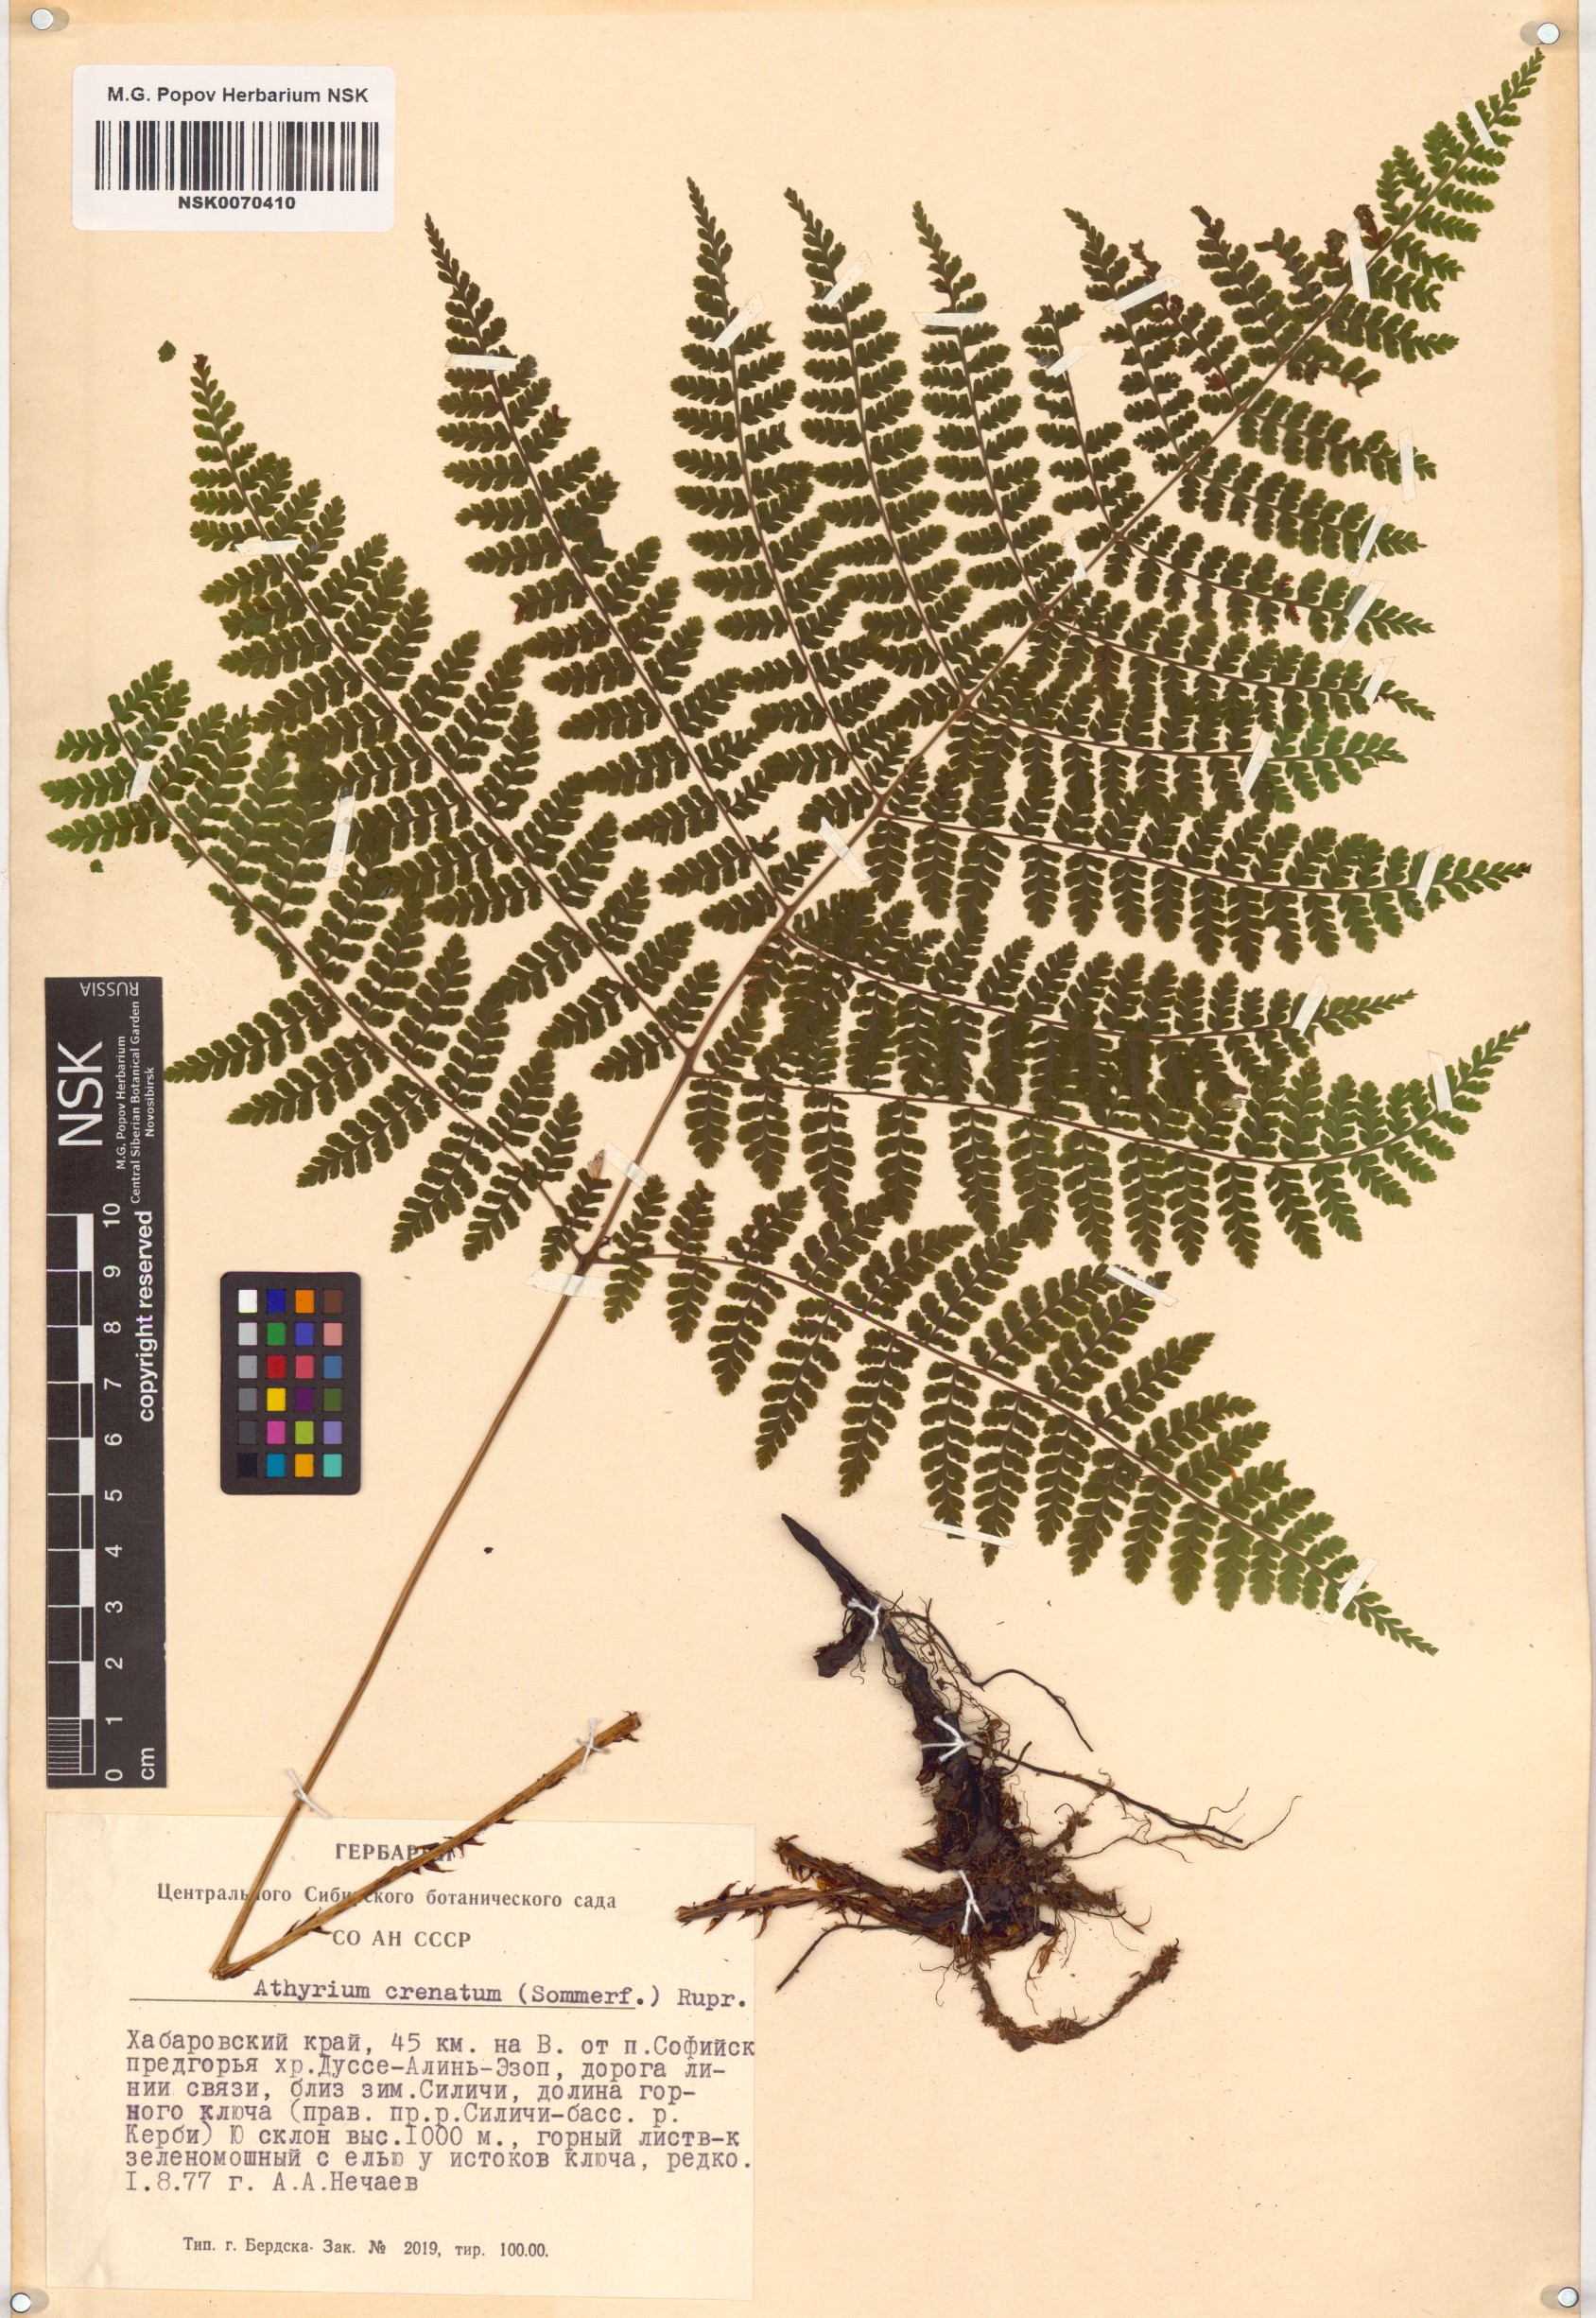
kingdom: Plantae
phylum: Tracheophyta
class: Polypodiopsida
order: Polypodiales
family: Athyriaceae
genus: Diplazium
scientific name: Diplazium sibiricum
